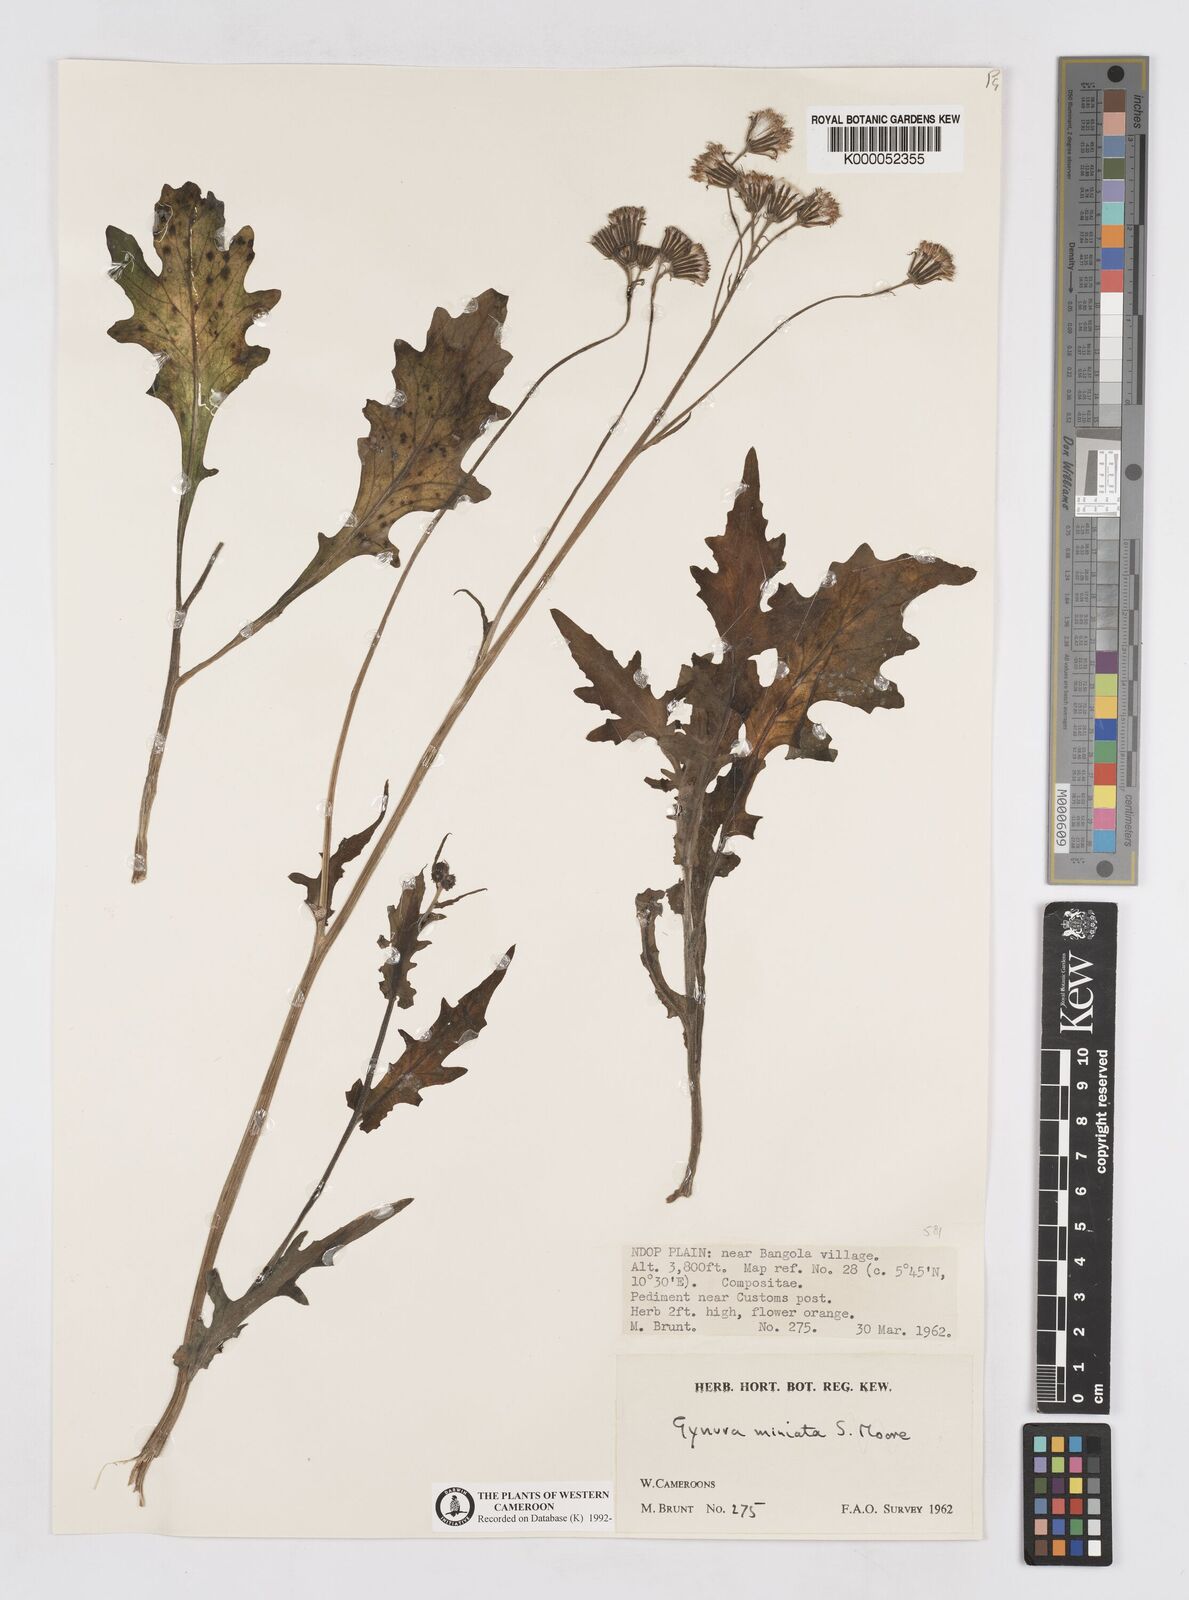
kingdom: Plantae
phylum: Tracheophyta
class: Magnoliopsida
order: Asterales
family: Asteraceae
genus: Gynura
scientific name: Gynura pseudochina
